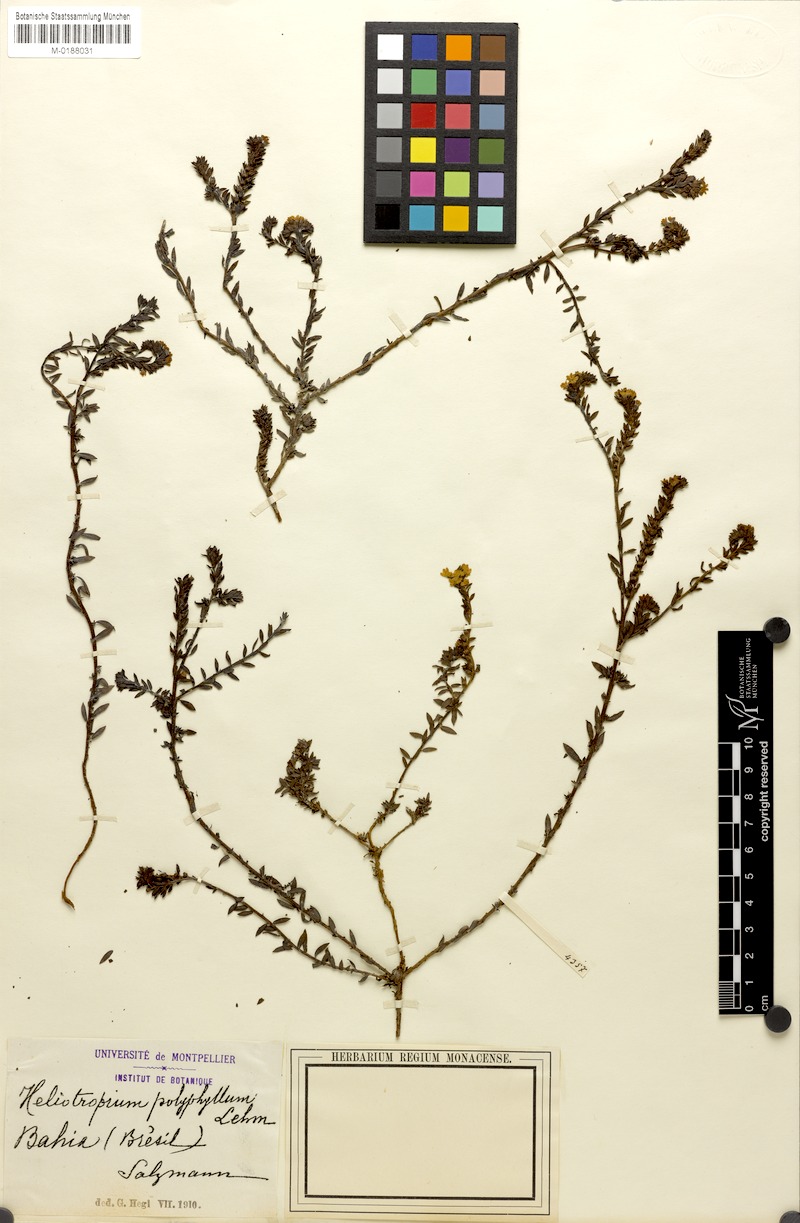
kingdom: Plantae
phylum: Tracheophyta
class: Magnoliopsida
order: Boraginales
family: Heliotropiaceae
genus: Euploca
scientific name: Euploca polyphylla
